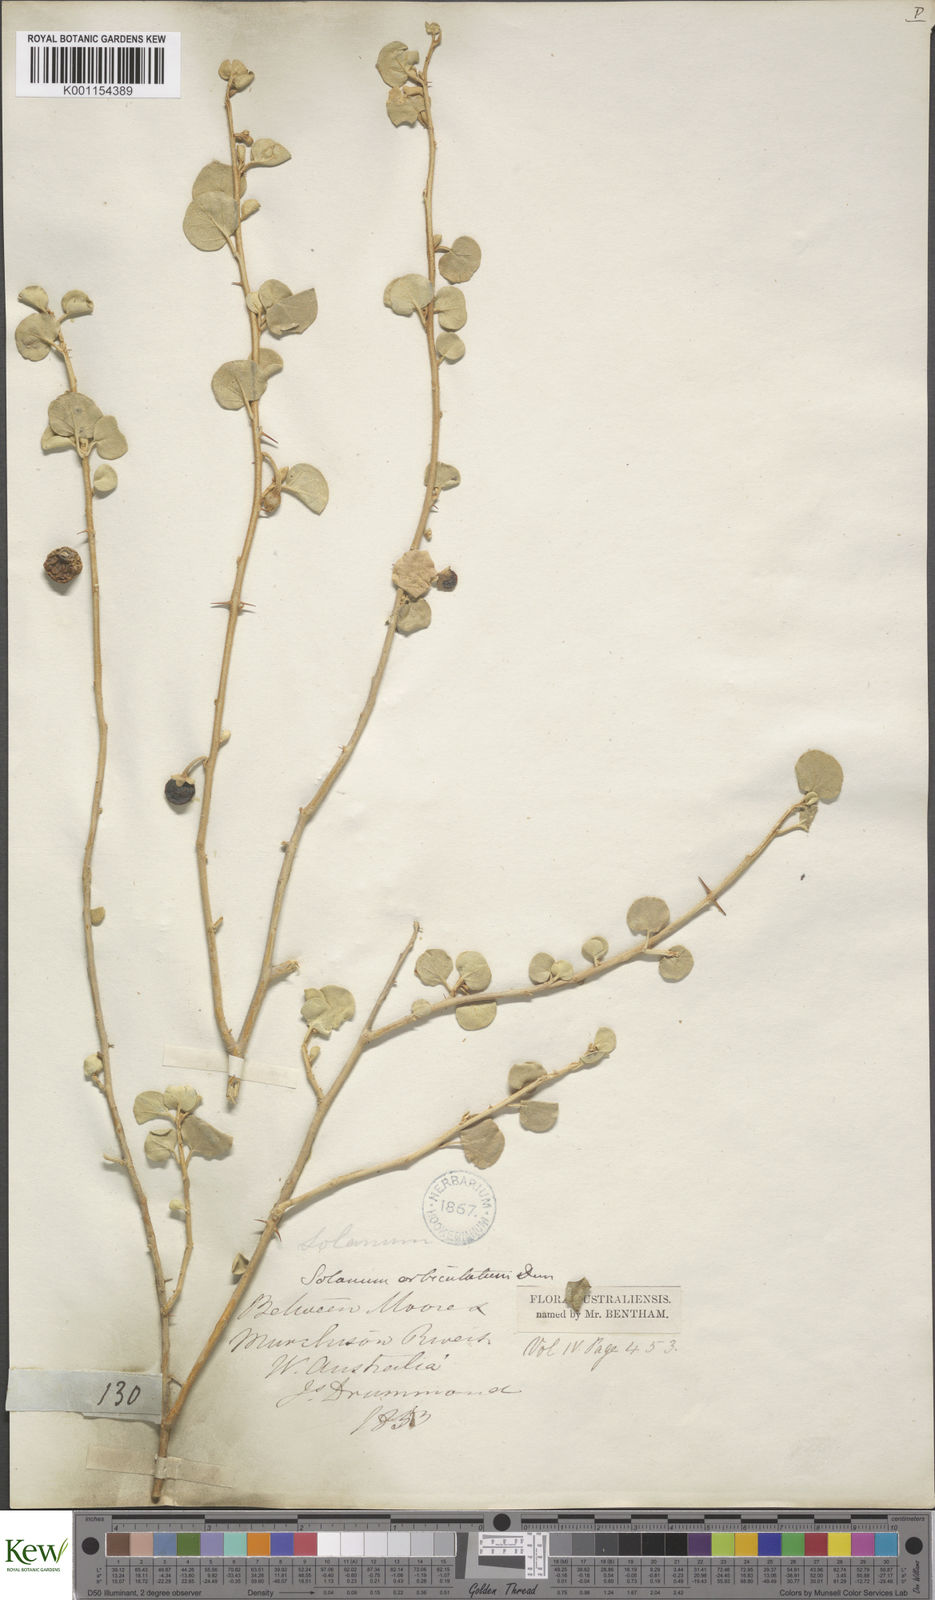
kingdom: Plantae
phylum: Tracheophyta
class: Magnoliopsida
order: Solanales
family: Solanaceae
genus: Solanum
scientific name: Solanum orbiculatum
